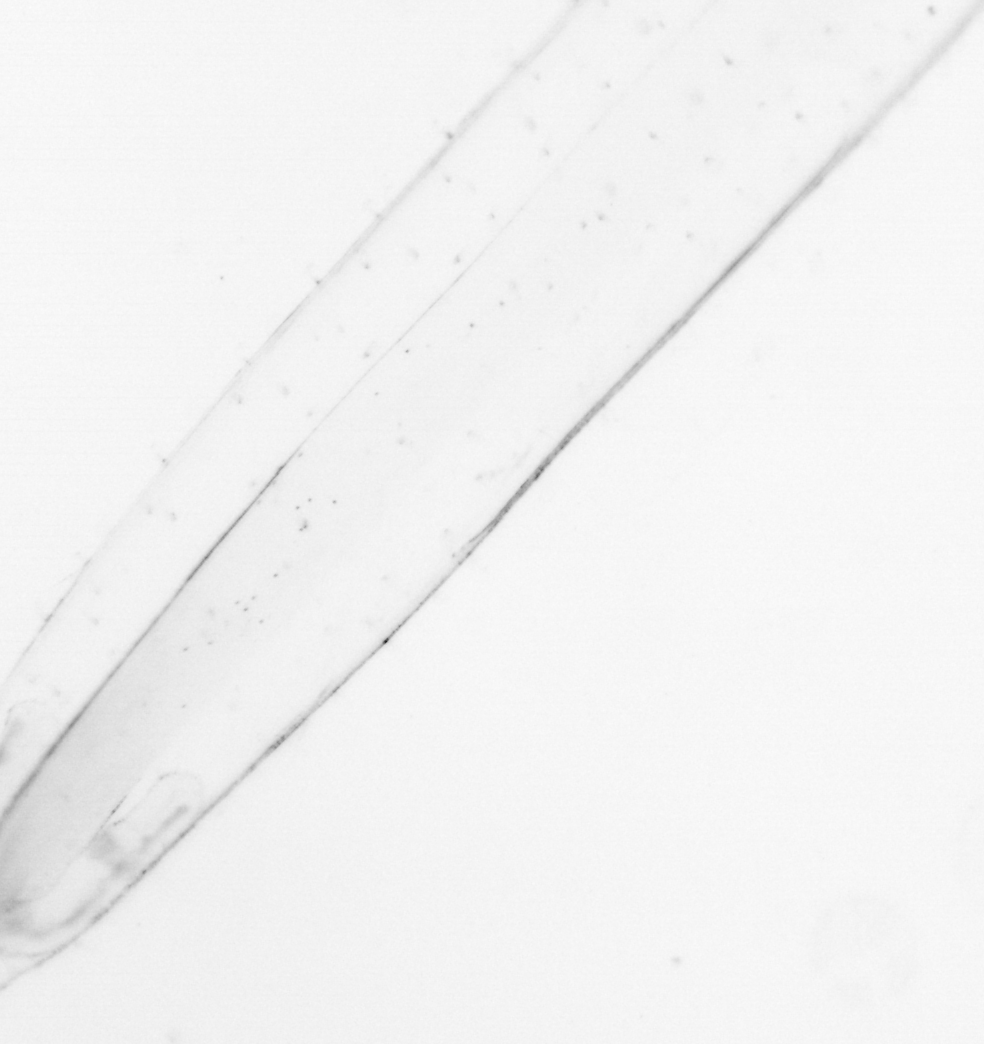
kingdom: Animalia
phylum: Chaetognatha
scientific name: Chaetognatha
